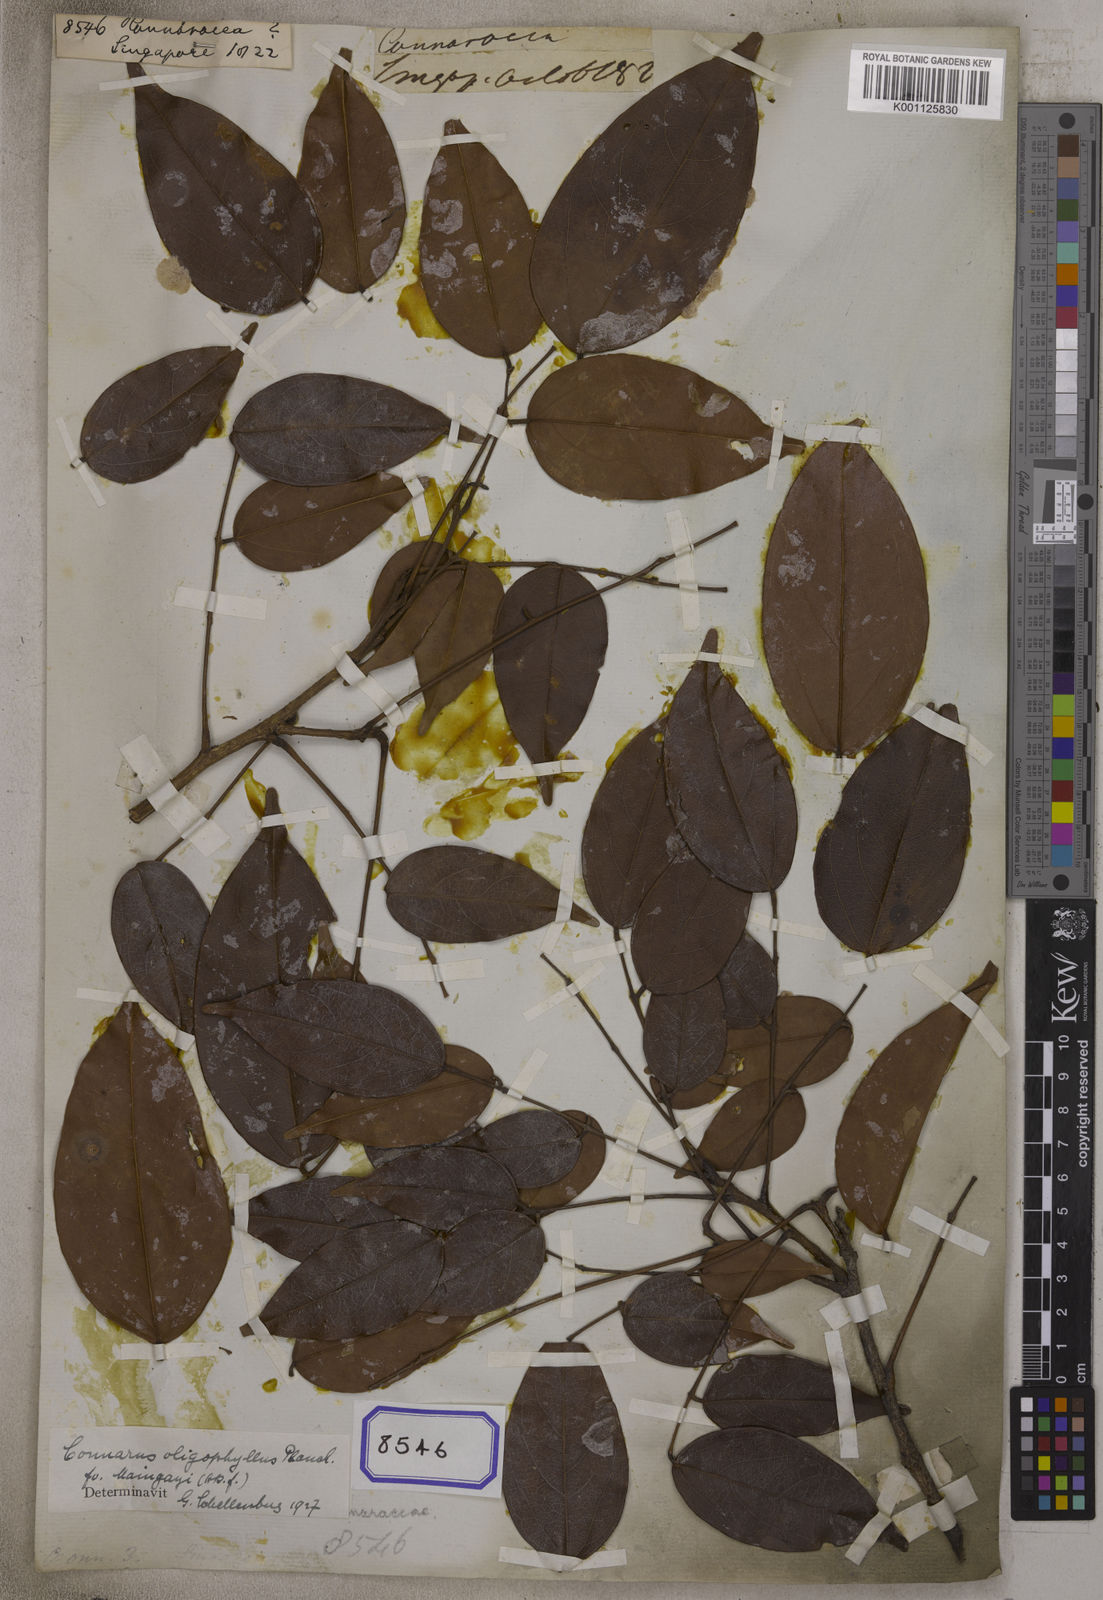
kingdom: Plantae
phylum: Tracheophyta
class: Magnoliopsida
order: Oxalidales
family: Connaraceae
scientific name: Connaraceae
